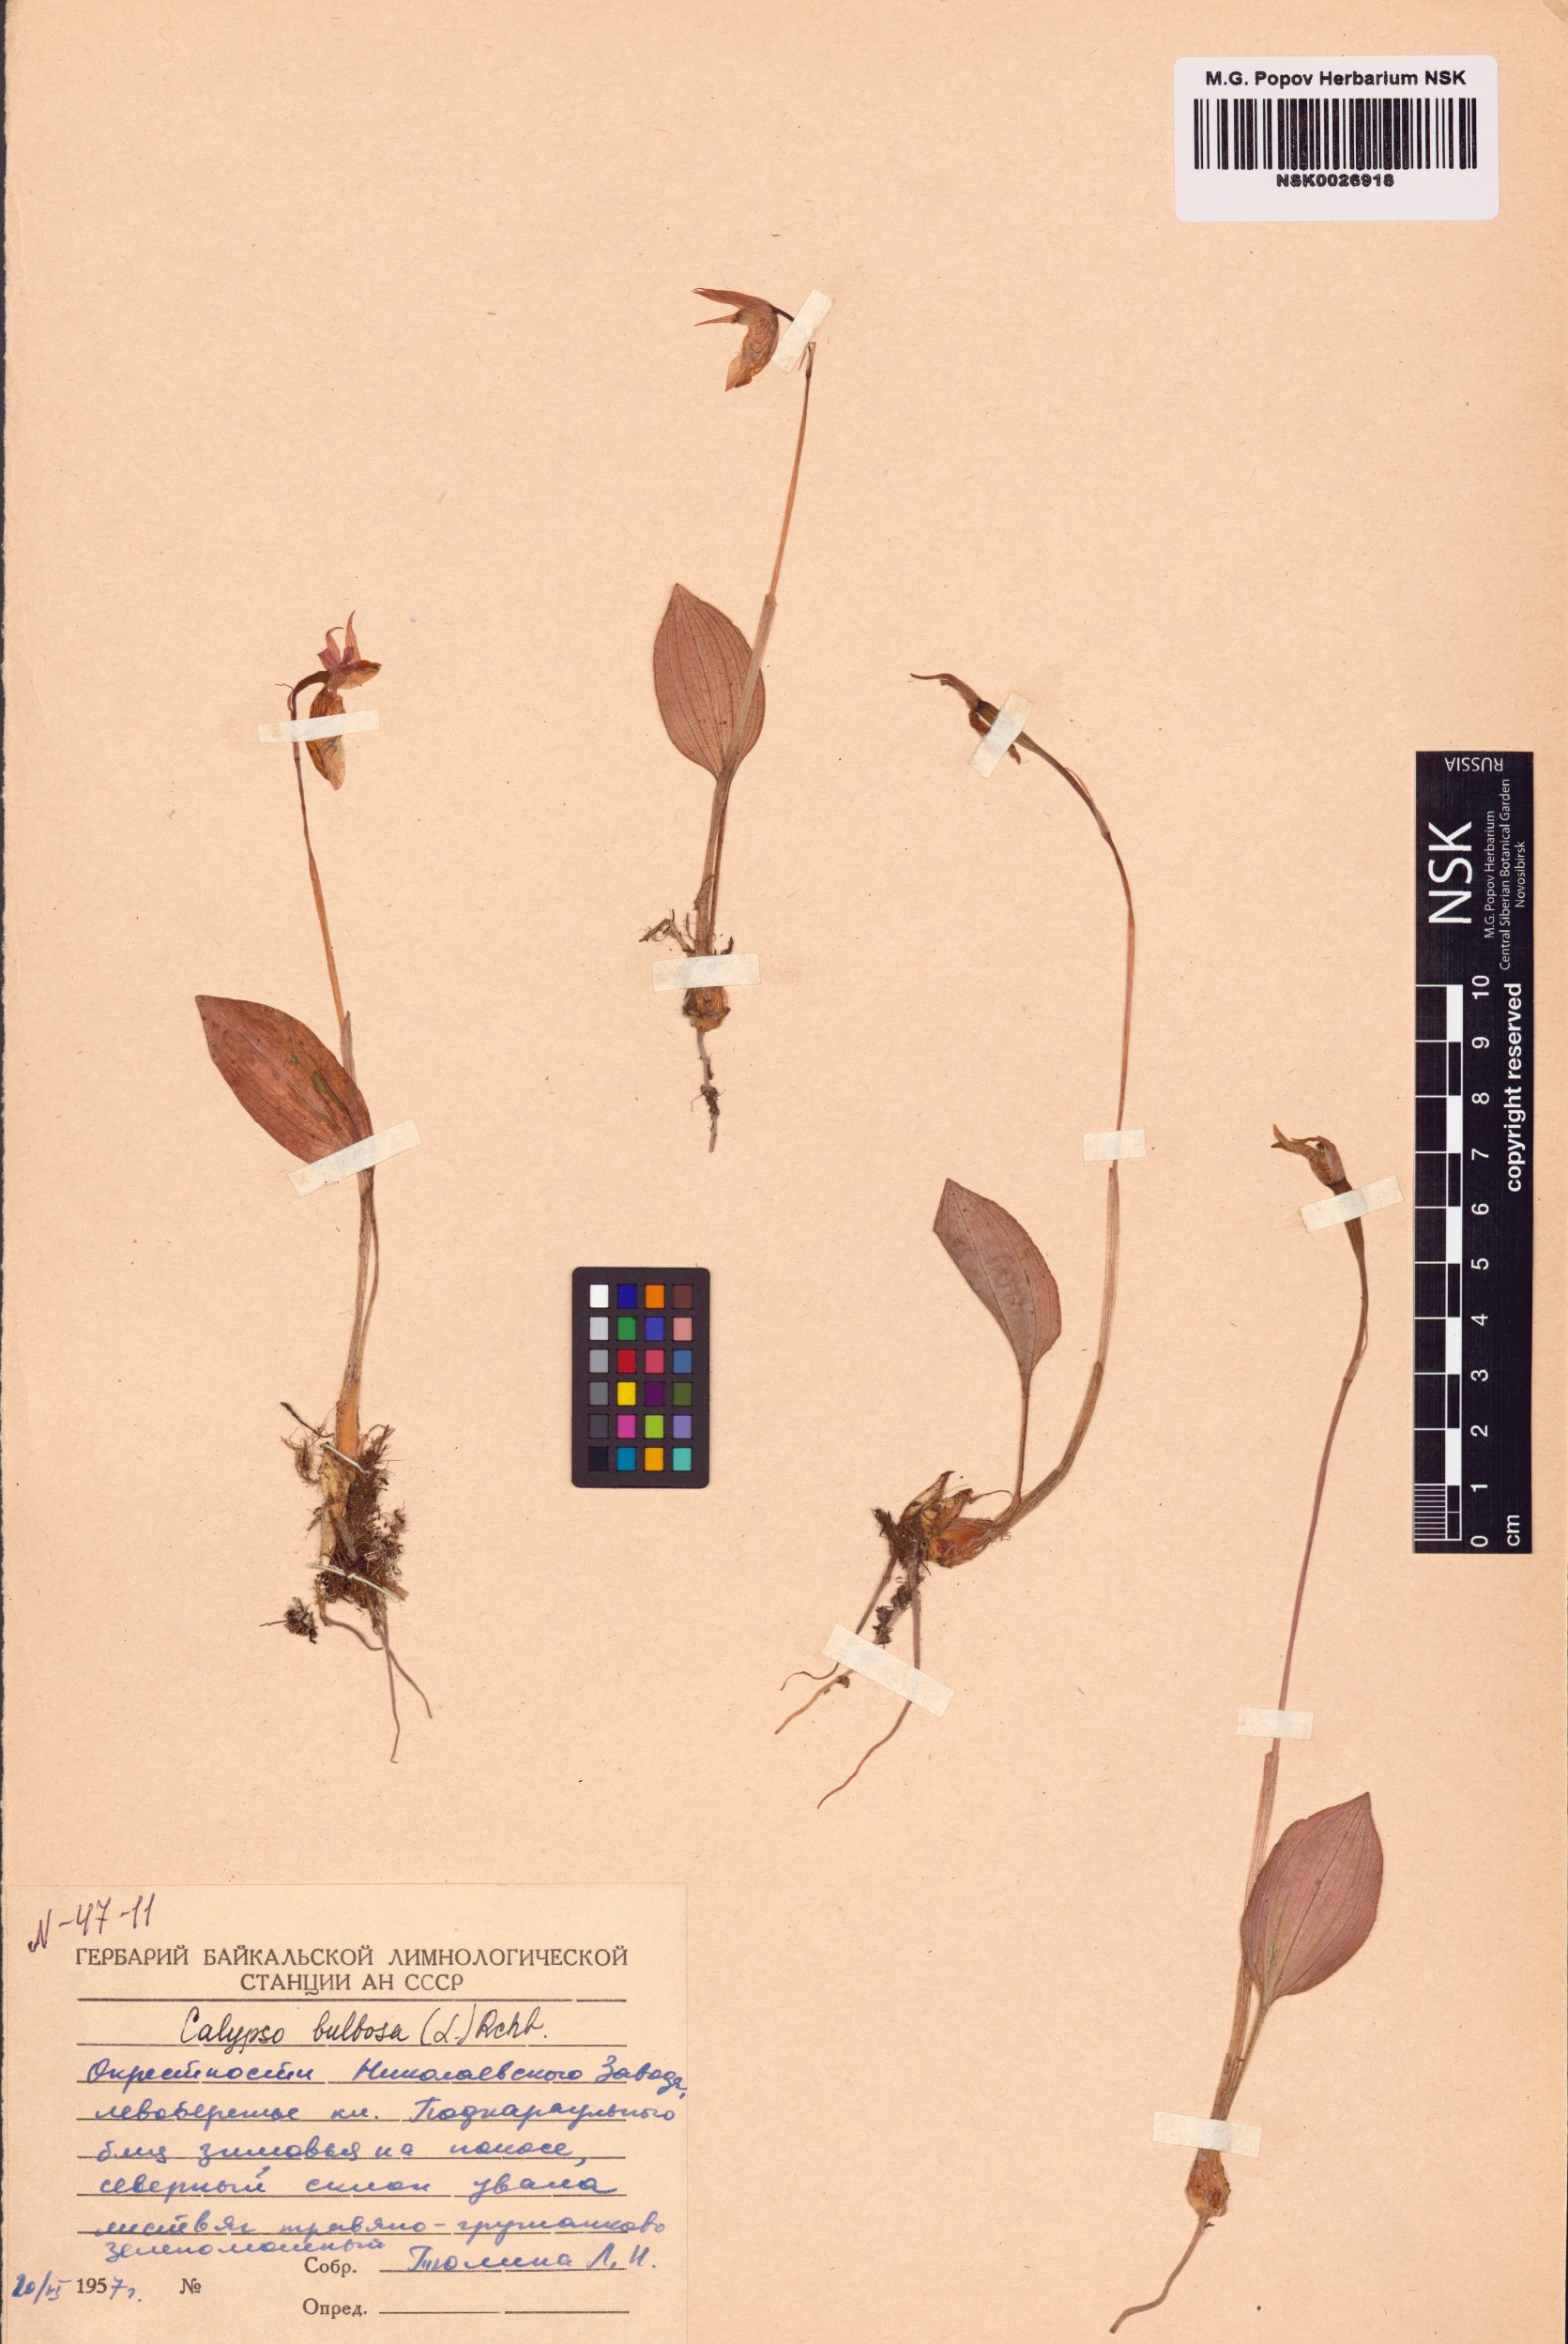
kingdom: Plantae
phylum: Tracheophyta
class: Liliopsida
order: Asparagales
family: Orchidaceae
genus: Calypso
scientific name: Calypso bulbosa
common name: Calypso
